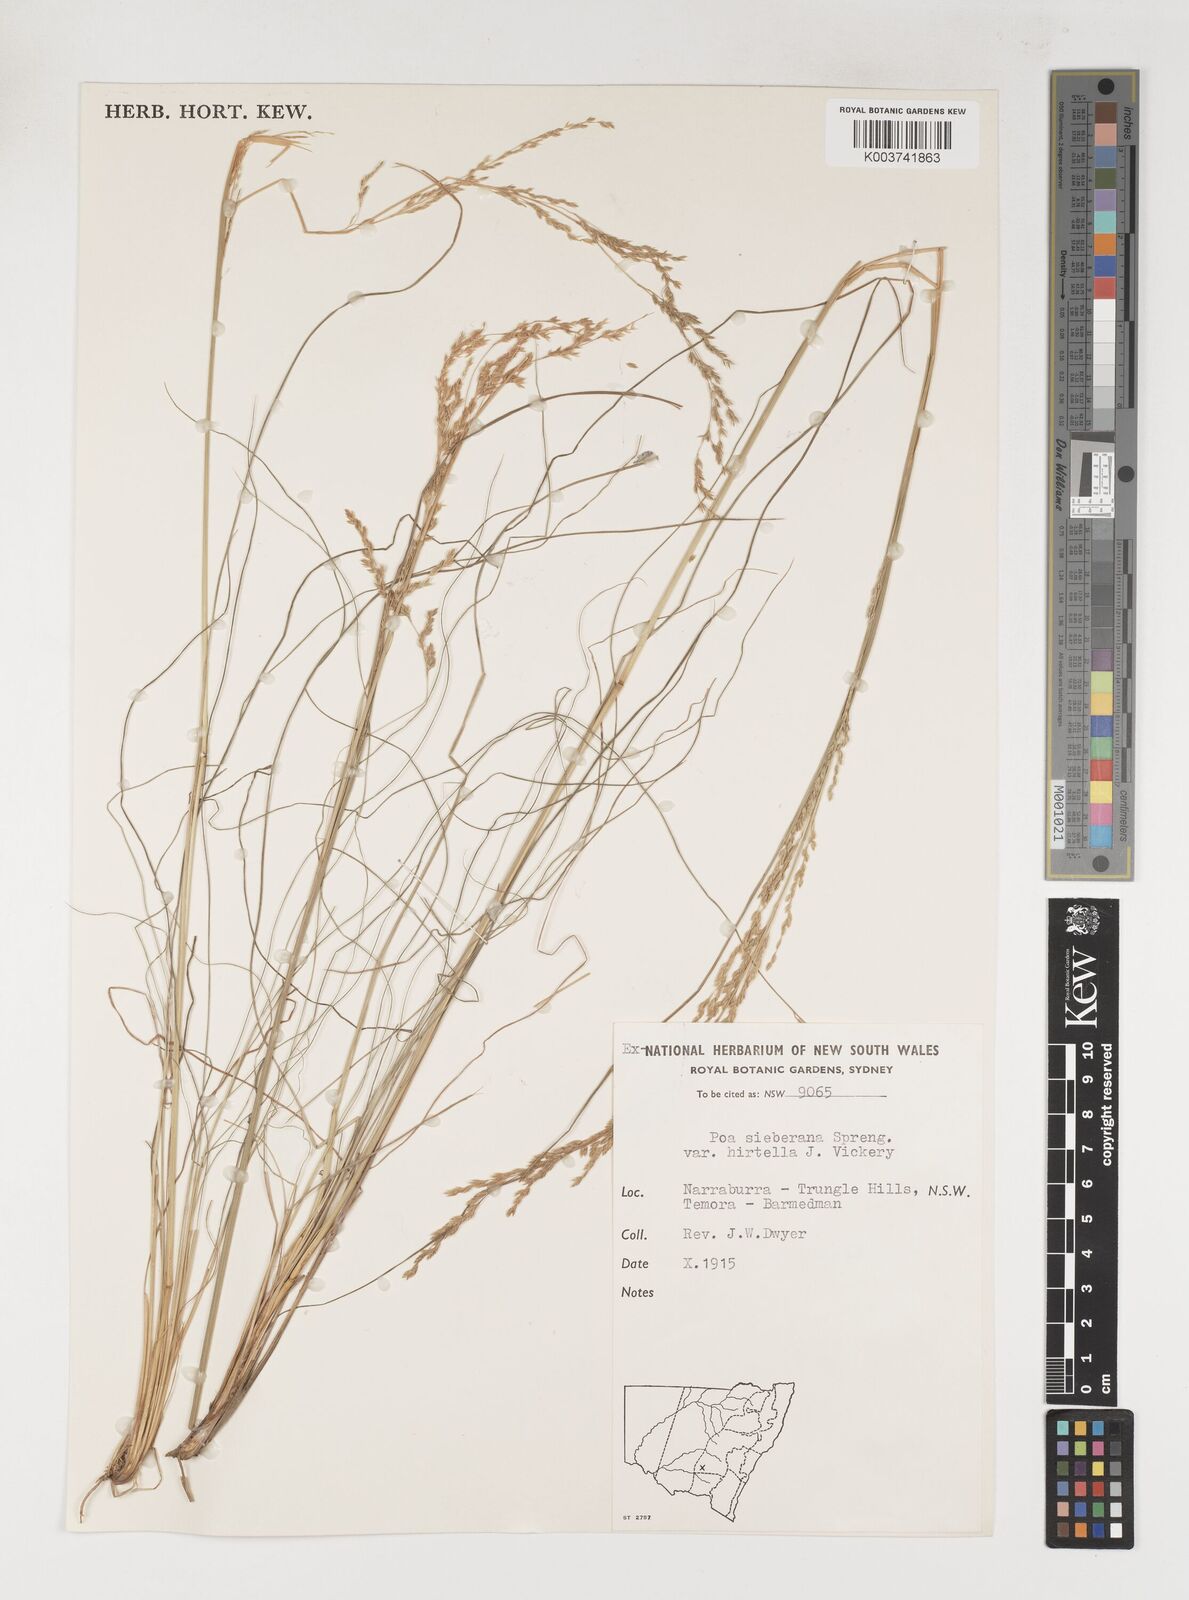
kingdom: Plantae
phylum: Tracheophyta
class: Liliopsida
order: Poales
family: Poaceae
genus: Poa
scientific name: Poa sieberiana
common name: Tussock poa
